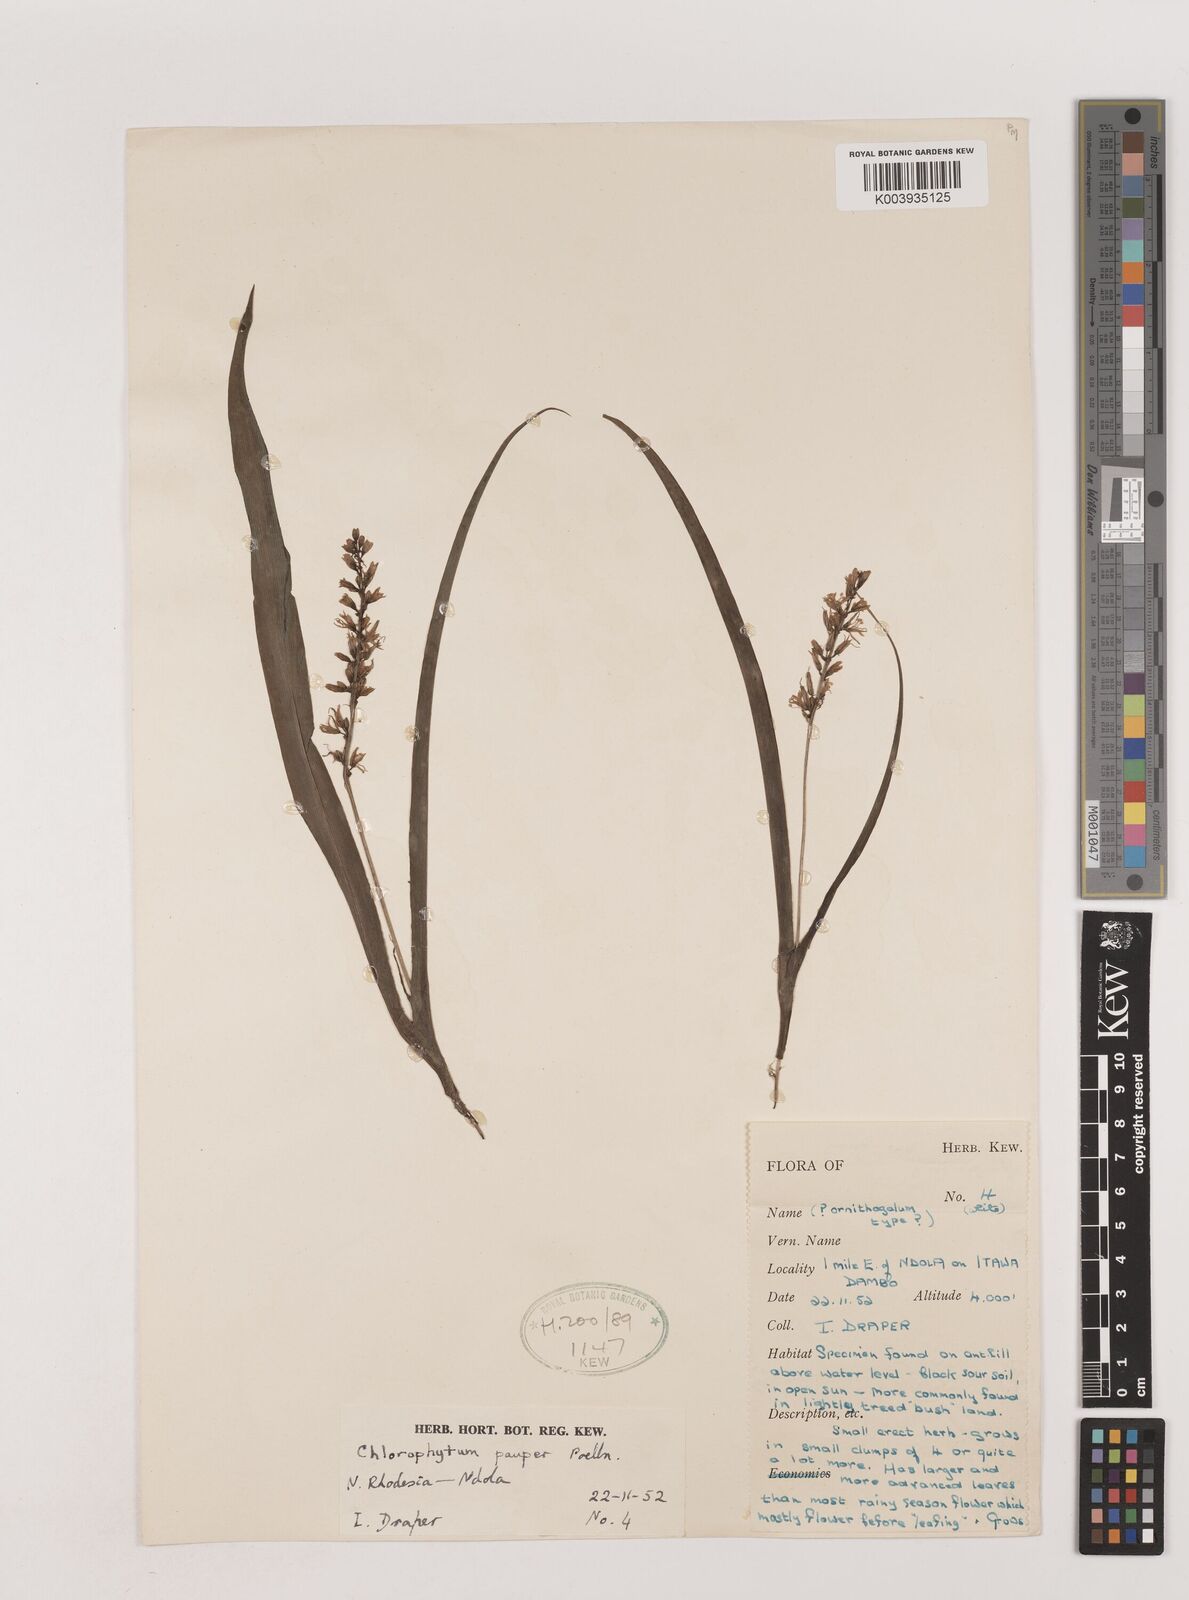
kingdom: Plantae
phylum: Tracheophyta
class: Liliopsida
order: Asparagales
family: Asparagaceae
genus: Chlorophytum
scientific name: Chlorophytum pauper
